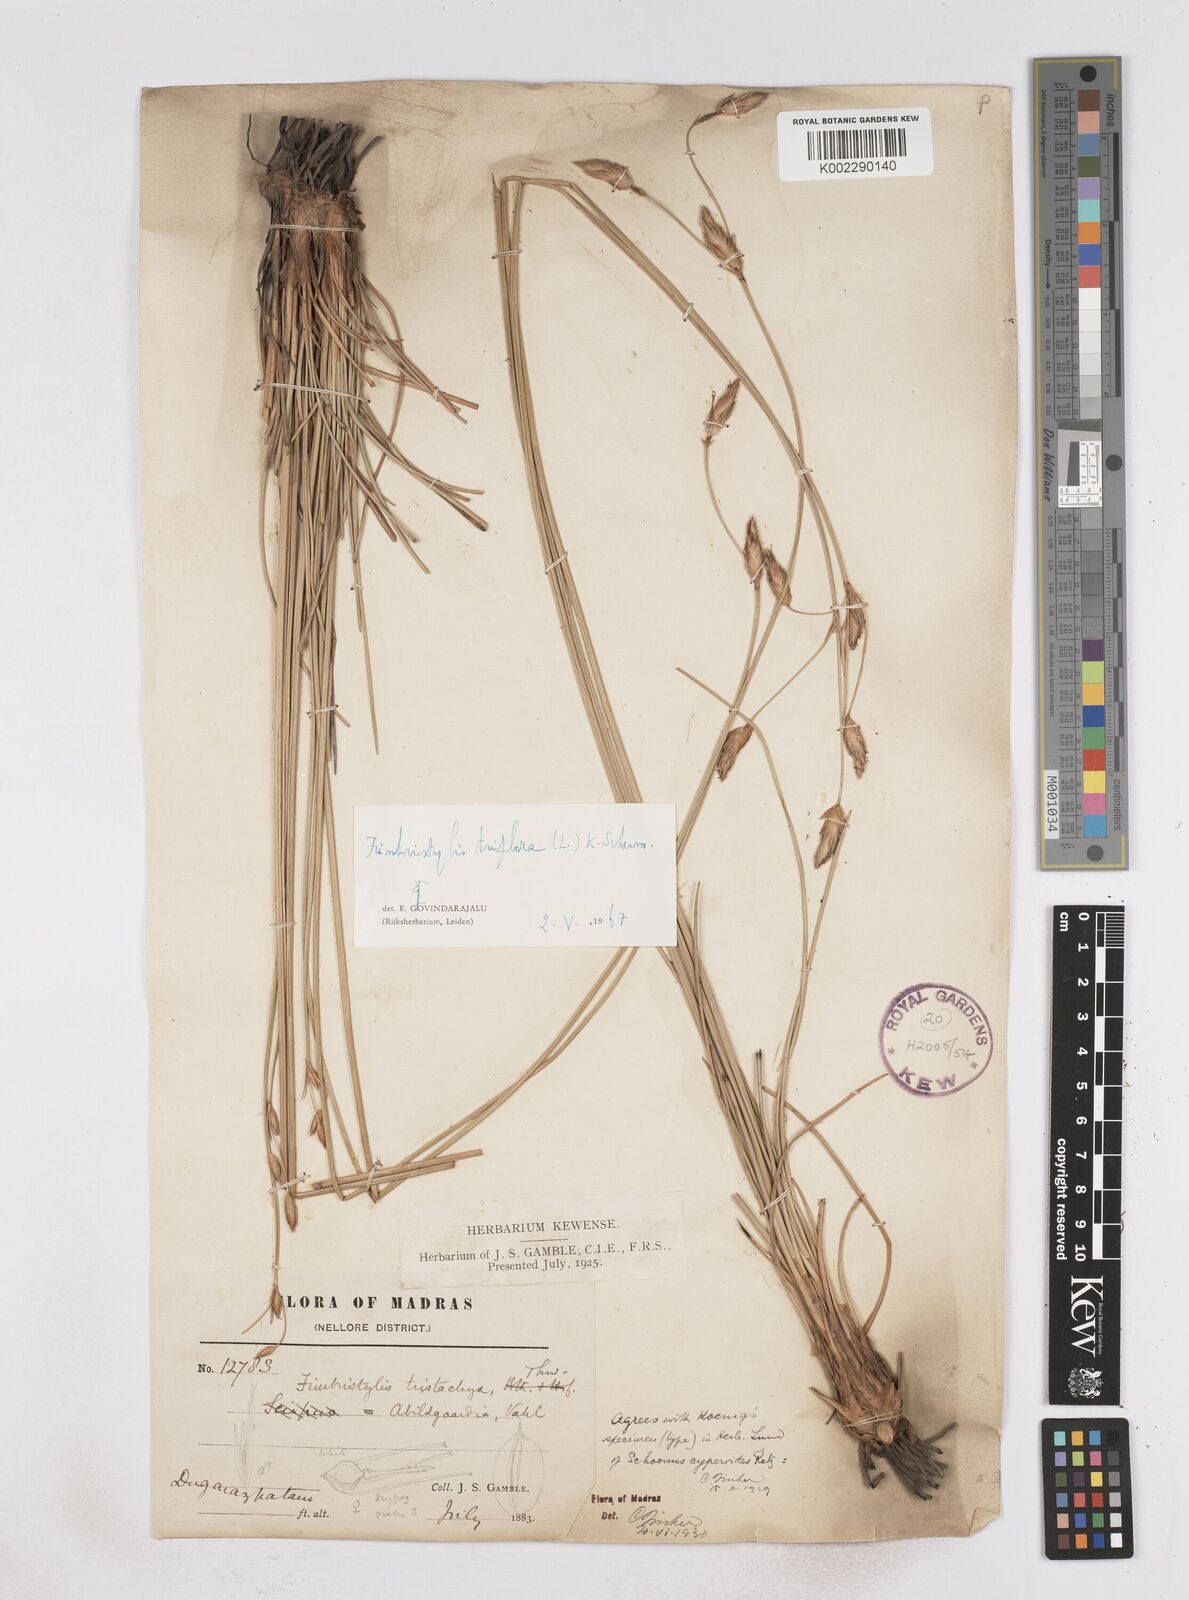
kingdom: Plantae
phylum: Tracheophyta
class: Liliopsida
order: Poales
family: Cyperaceae
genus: Abildgaardia
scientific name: Abildgaardia triflora
